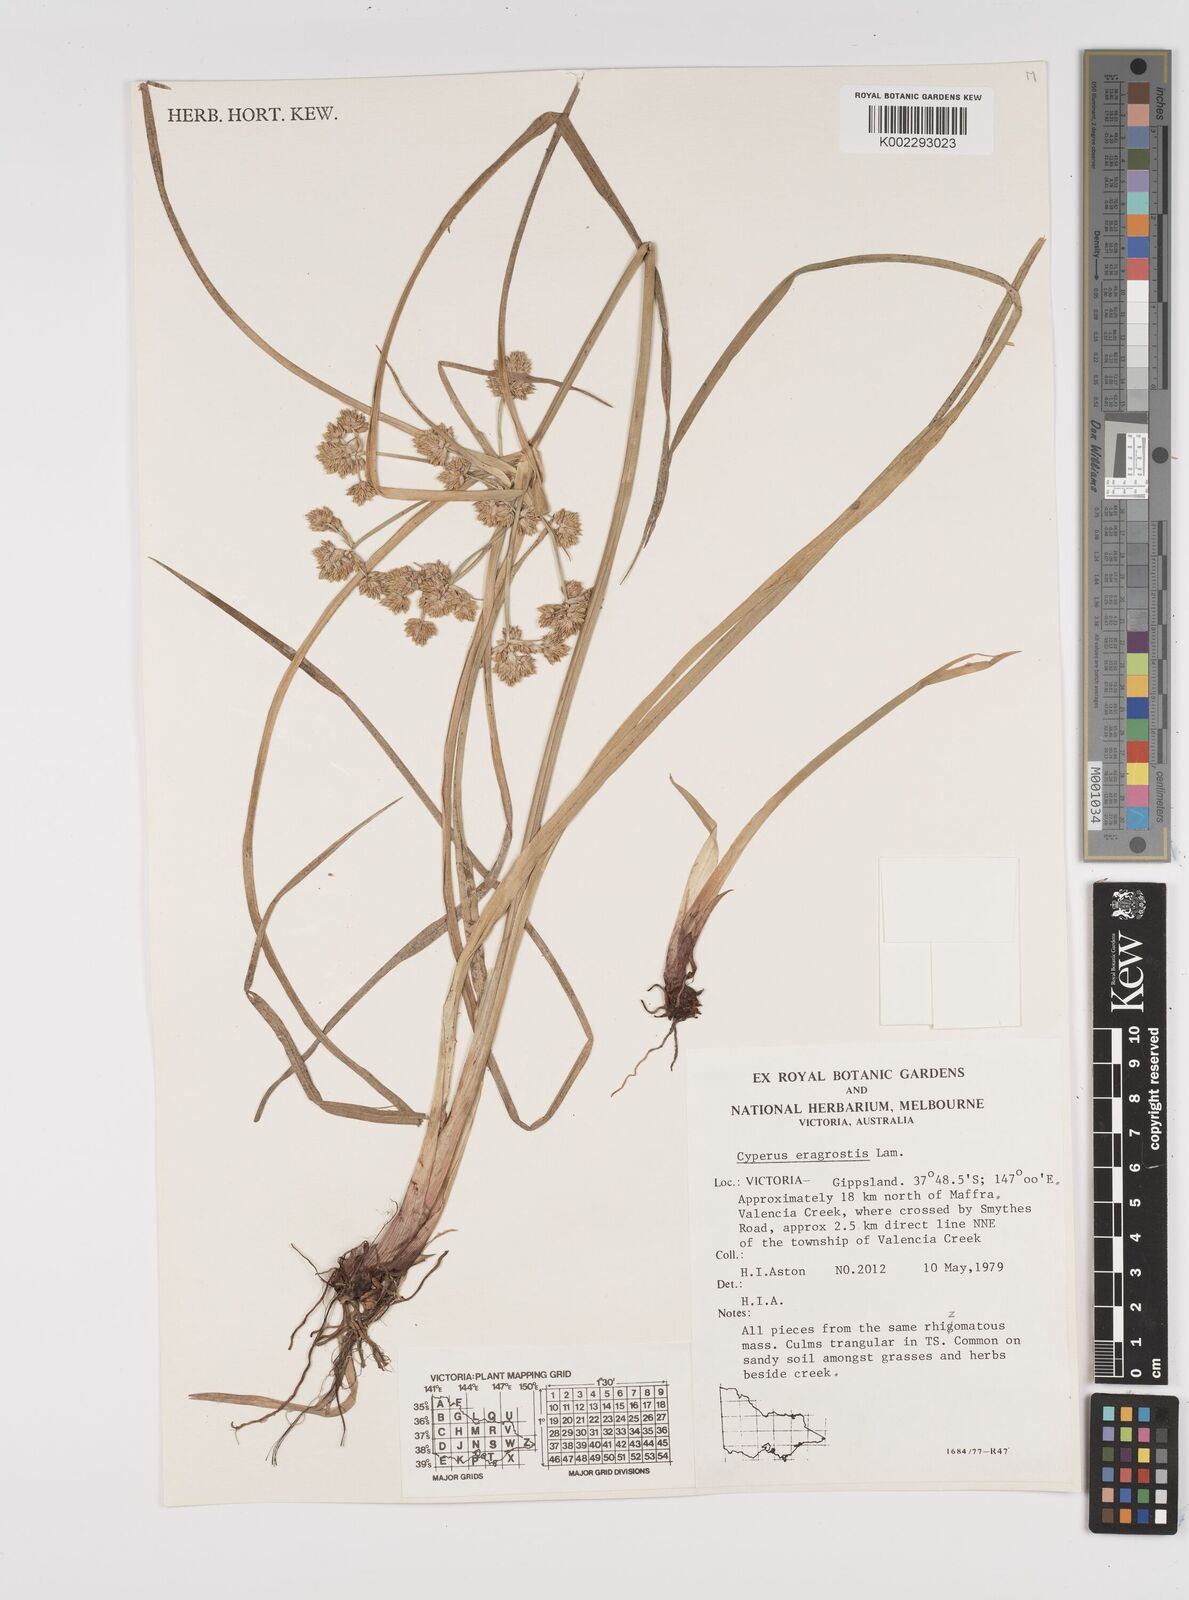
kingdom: Plantae
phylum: Tracheophyta
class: Liliopsida
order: Poales
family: Cyperaceae
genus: Cyperus
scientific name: Cyperus eragrostis
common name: Tall flatsedge
